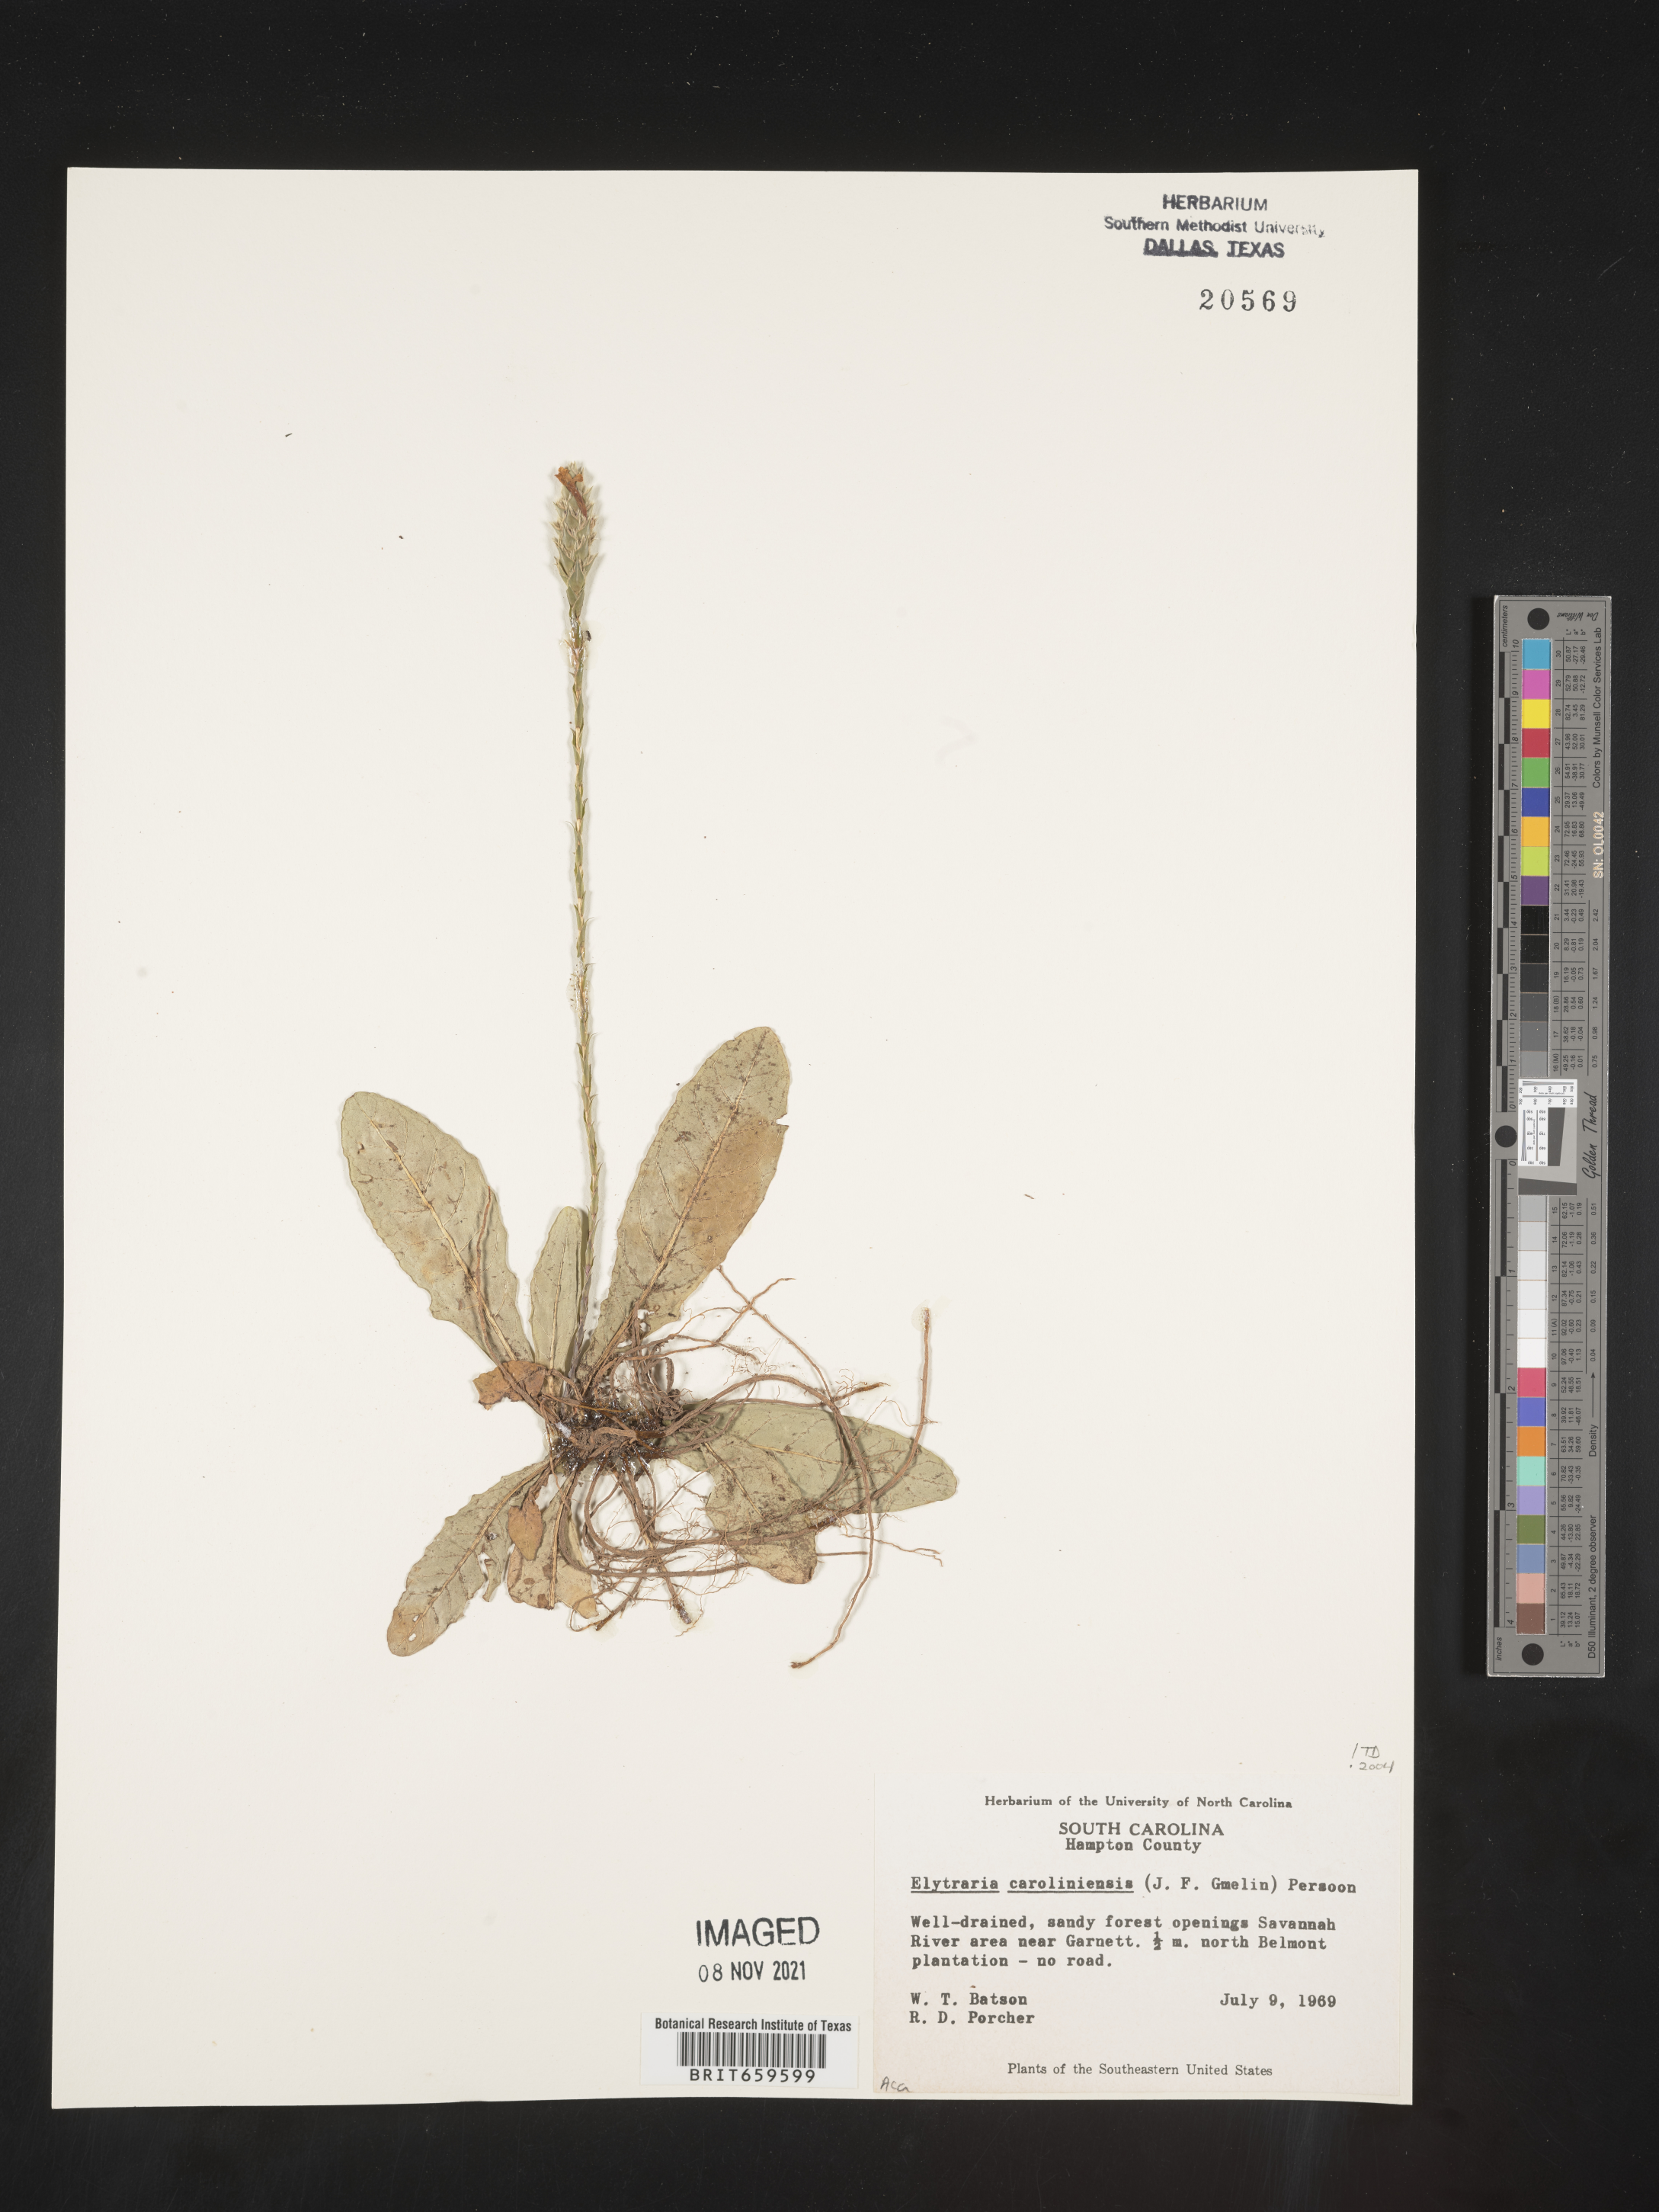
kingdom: Plantae
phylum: Tracheophyta
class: Magnoliopsida
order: Lamiales
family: Acanthaceae
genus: Elytraria
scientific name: Elytraria imbricata
